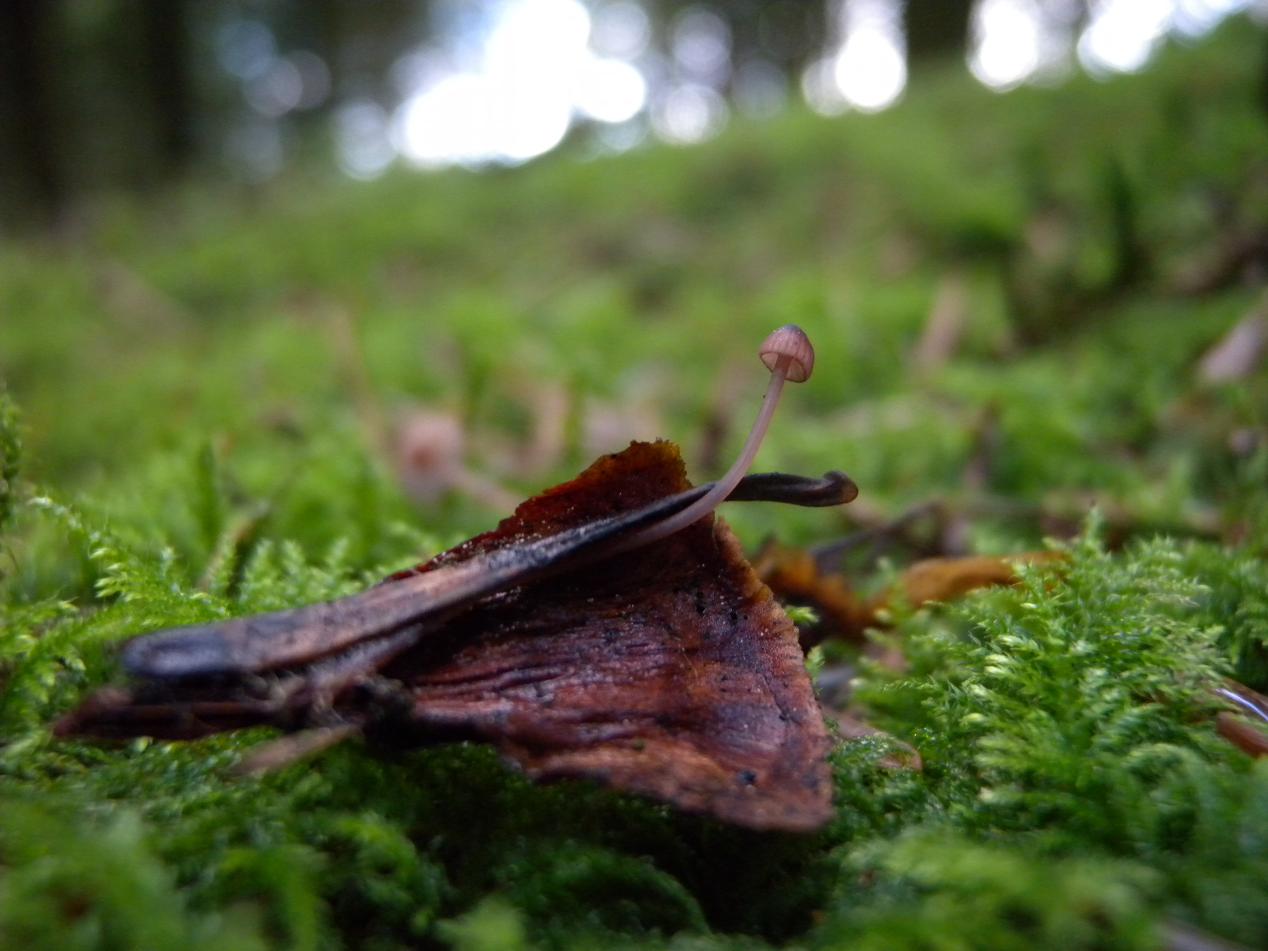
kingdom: Fungi
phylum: Basidiomycota
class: Agaricomycetes
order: Agaricales
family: Mycenaceae
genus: Mycena
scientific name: Mycena sanguinolenta
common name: rødmælket huesvamp
